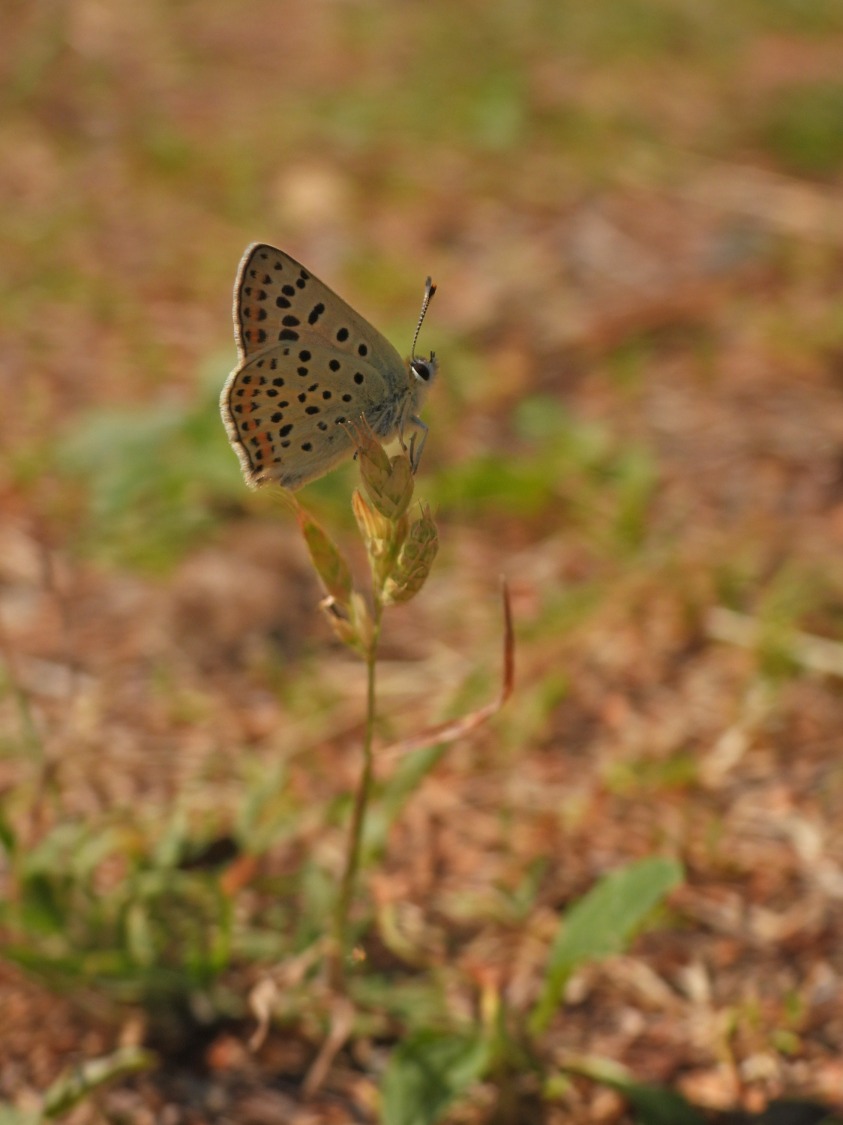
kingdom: Animalia
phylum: Arthropoda
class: Insecta
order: Lepidoptera
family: Lycaenidae
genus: Loweia
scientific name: Loweia tityrus
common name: Sort ildfugl
